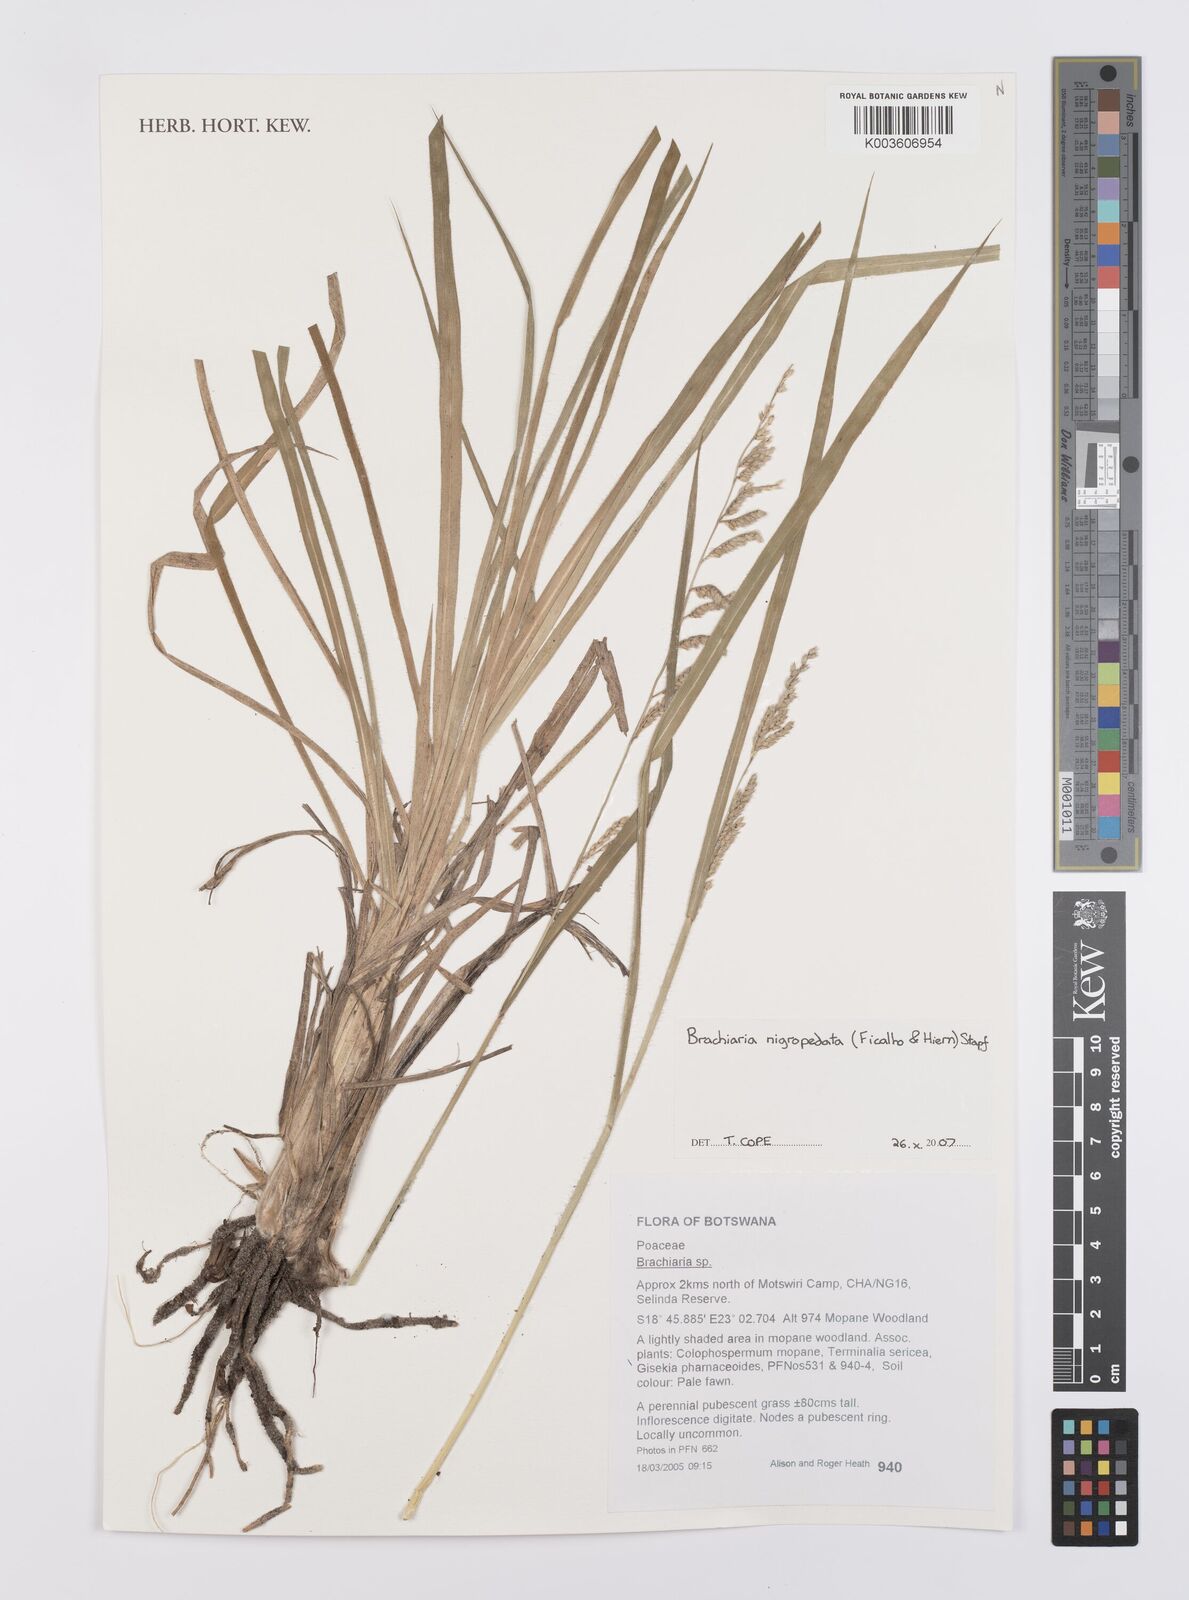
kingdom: Plantae
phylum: Tracheophyta
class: Liliopsida
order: Poales
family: Poaceae
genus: Urochloa
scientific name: Urochloa nigropedata
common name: Spotted signal grass
